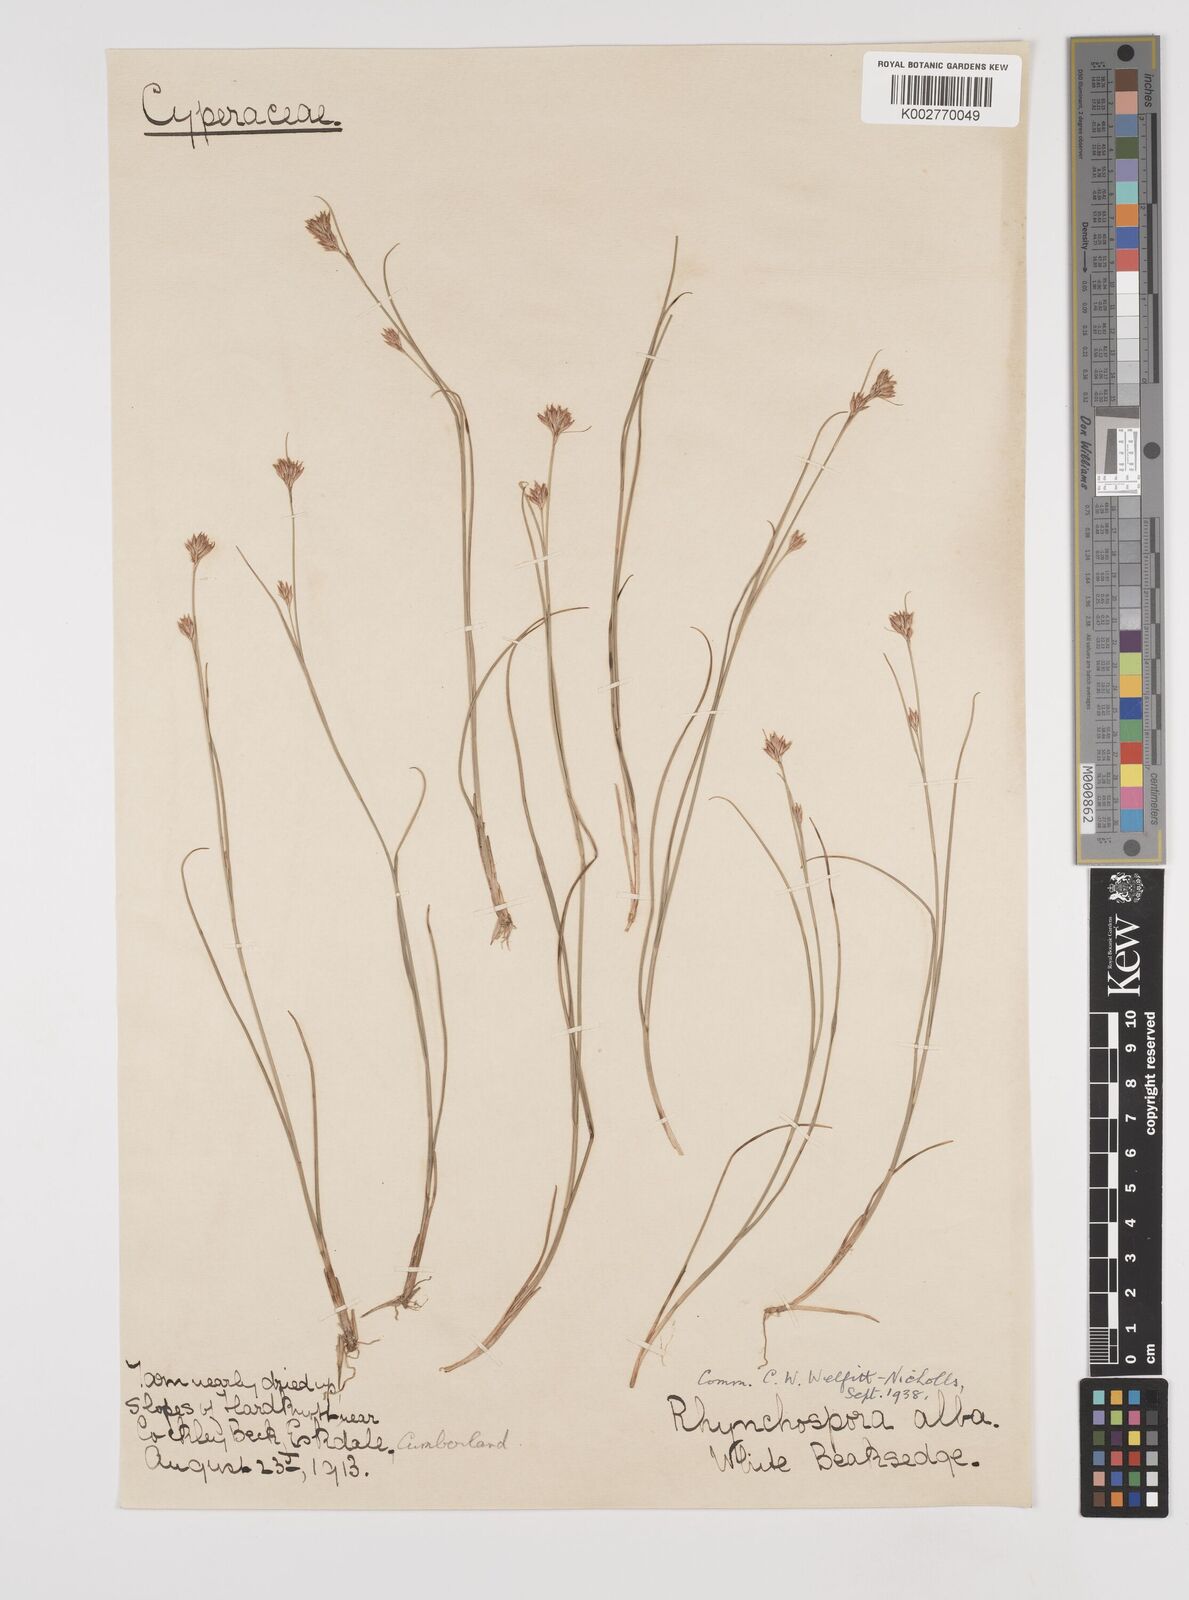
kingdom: Plantae
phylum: Tracheophyta
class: Liliopsida
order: Poales
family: Cyperaceae
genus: Rhynchospora
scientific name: Rhynchospora alba
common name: White beak-sedge
